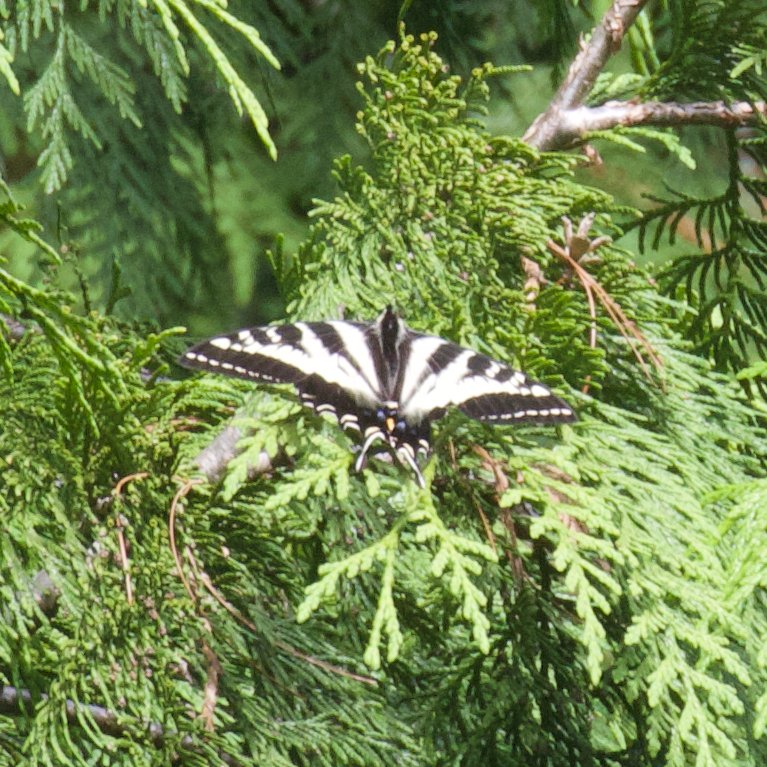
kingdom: Animalia
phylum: Arthropoda
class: Insecta
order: Lepidoptera
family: Papilionidae
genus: Pterourus
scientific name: Pterourus eurymedon
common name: Pale Swallowtail
